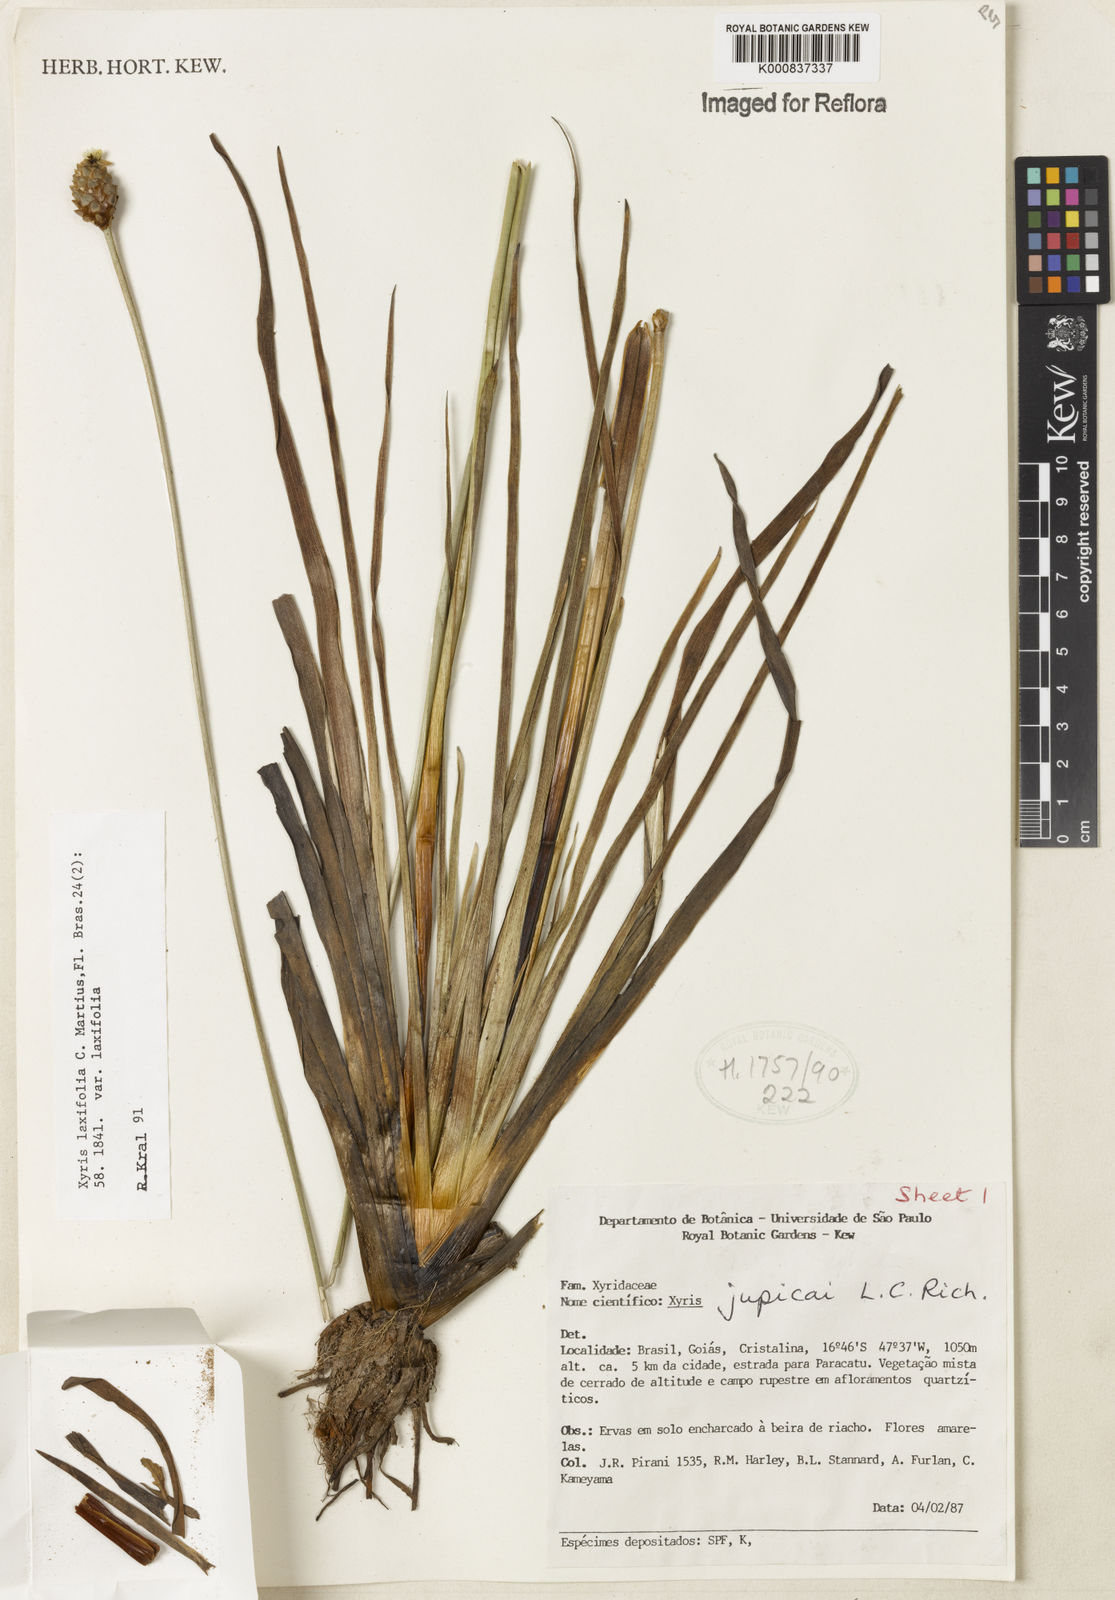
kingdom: Plantae
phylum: Tracheophyta
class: Liliopsida
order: Poales
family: Xyridaceae
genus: Xyris
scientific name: Xyris laxifolia
